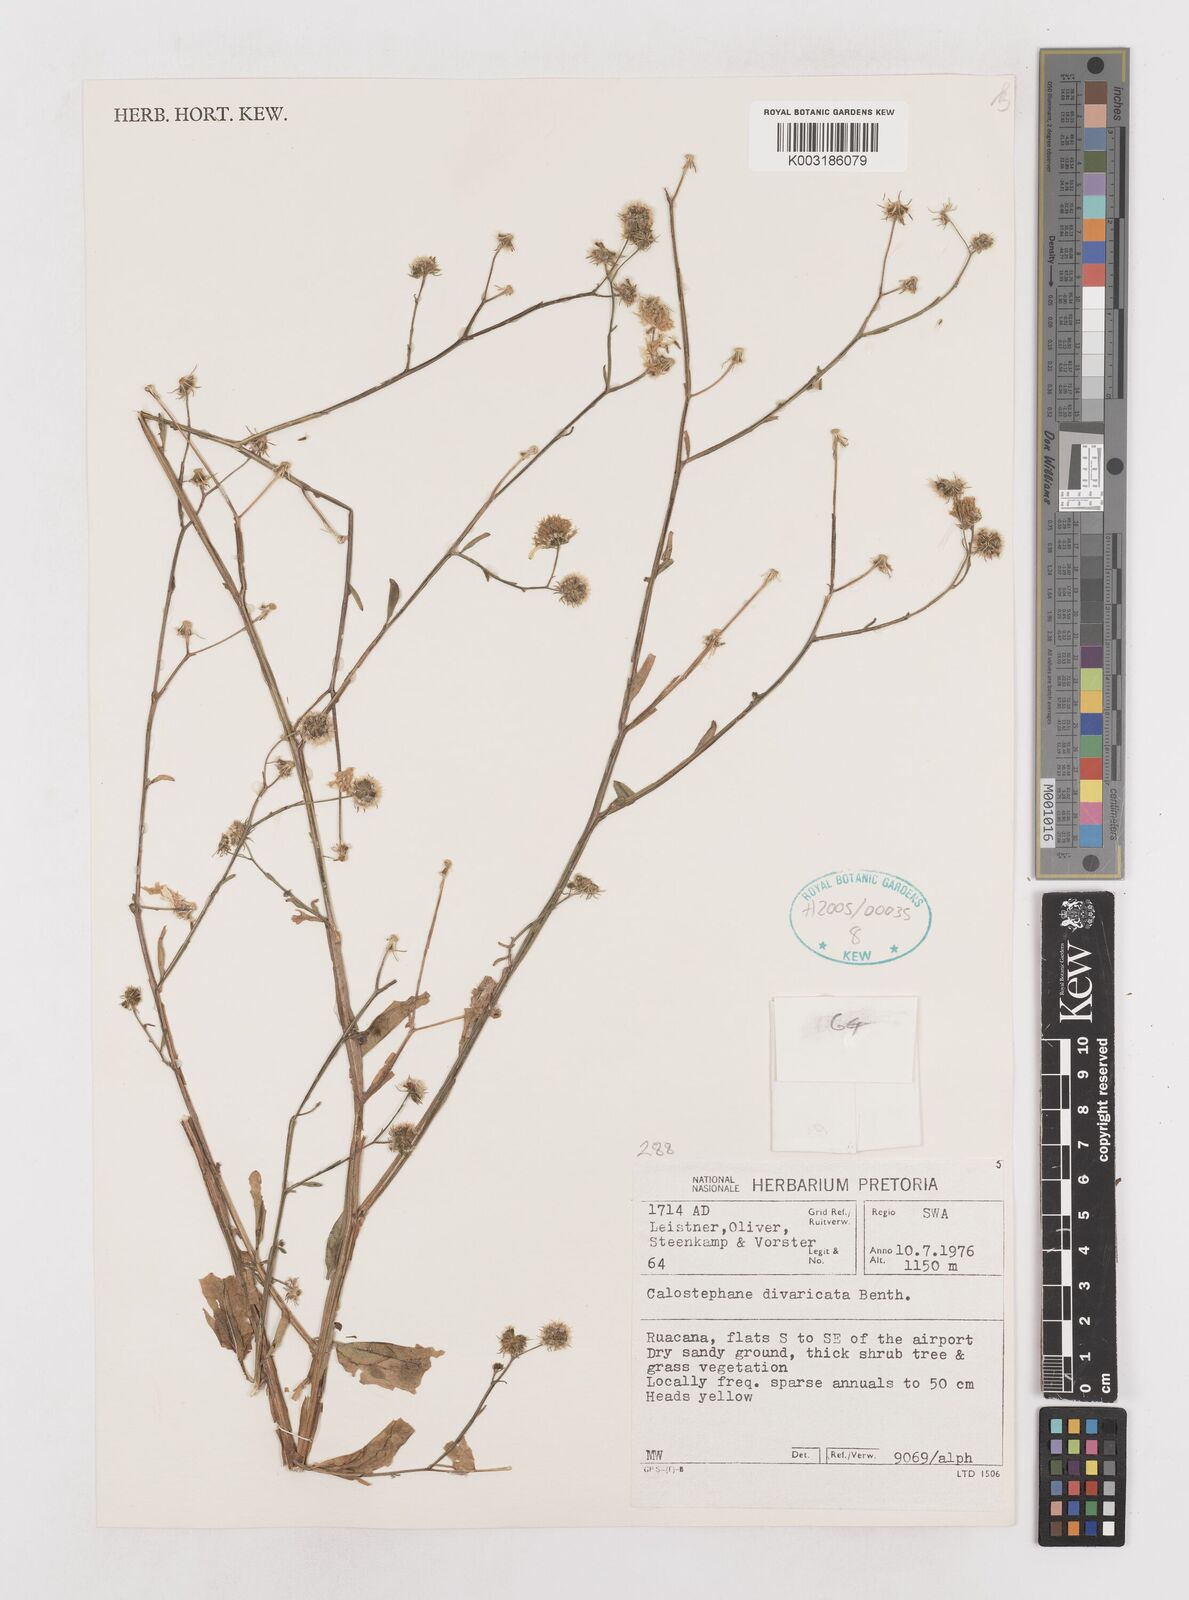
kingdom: Plantae
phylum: Tracheophyta
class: Magnoliopsida
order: Asterales
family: Asteraceae
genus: Calostephane
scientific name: Calostephane divaricata
